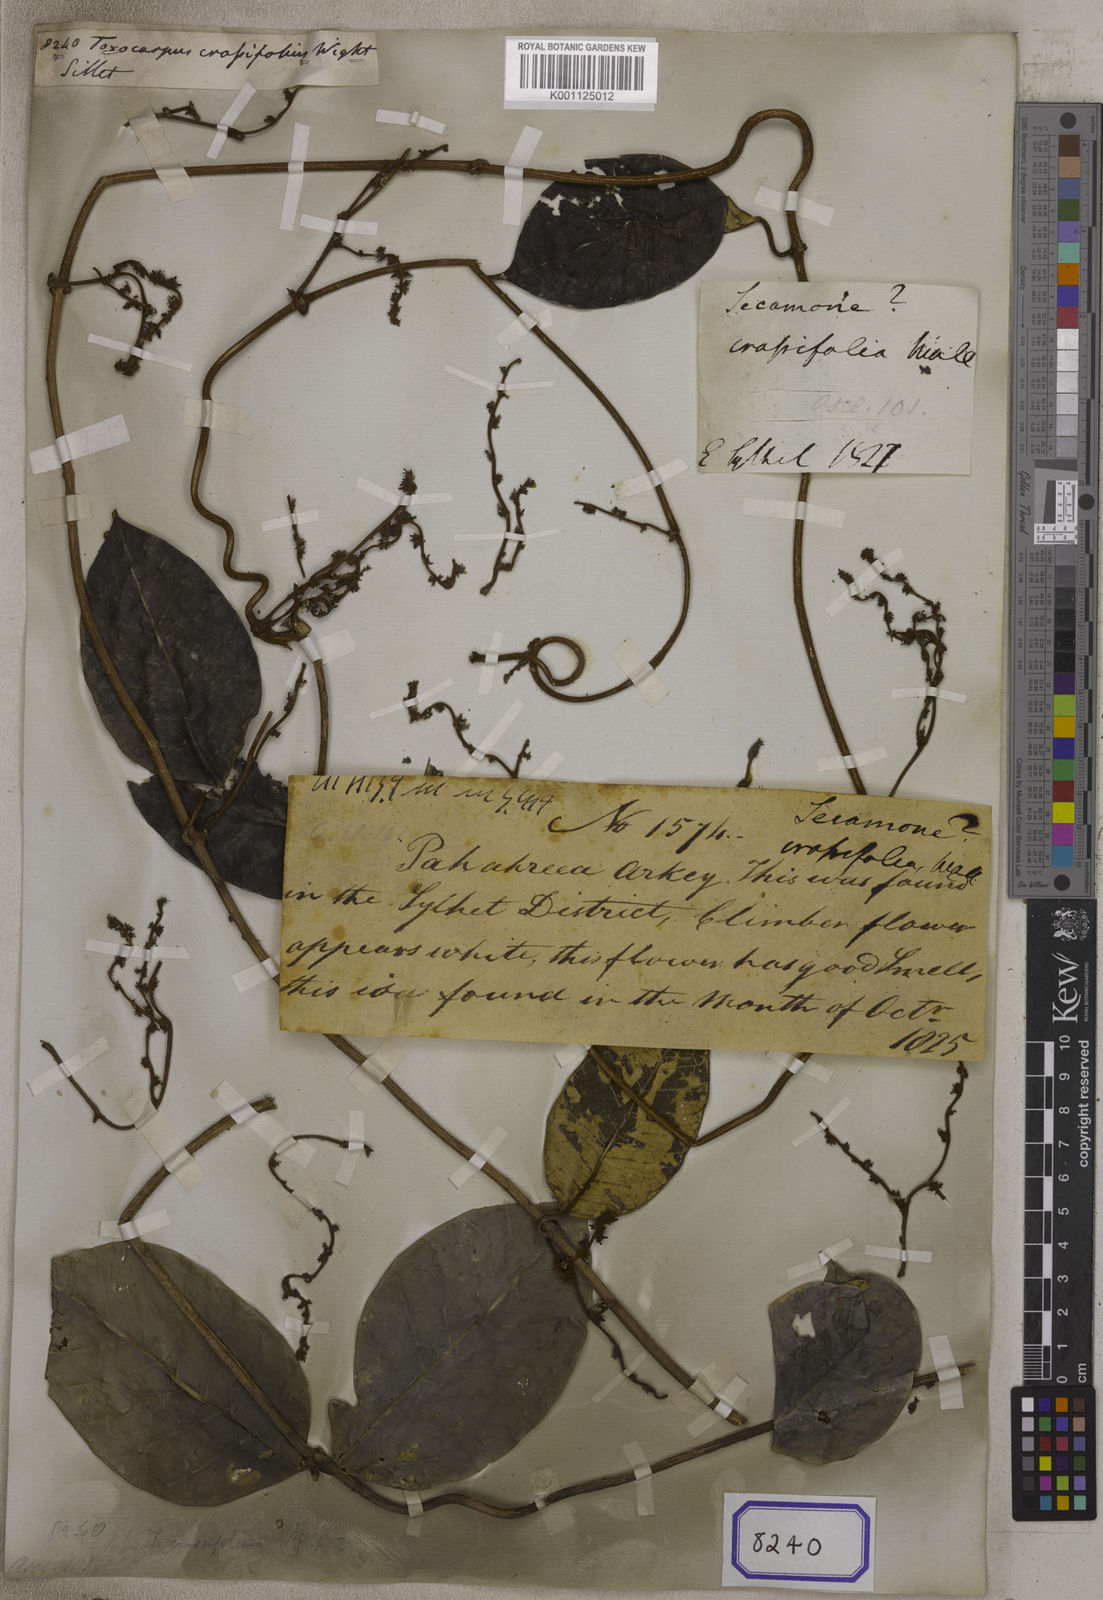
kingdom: Plantae
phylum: Tracheophyta
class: Magnoliopsida
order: Gentianales
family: Apocynaceae
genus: Genianthus
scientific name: Genianthus crassifolius
